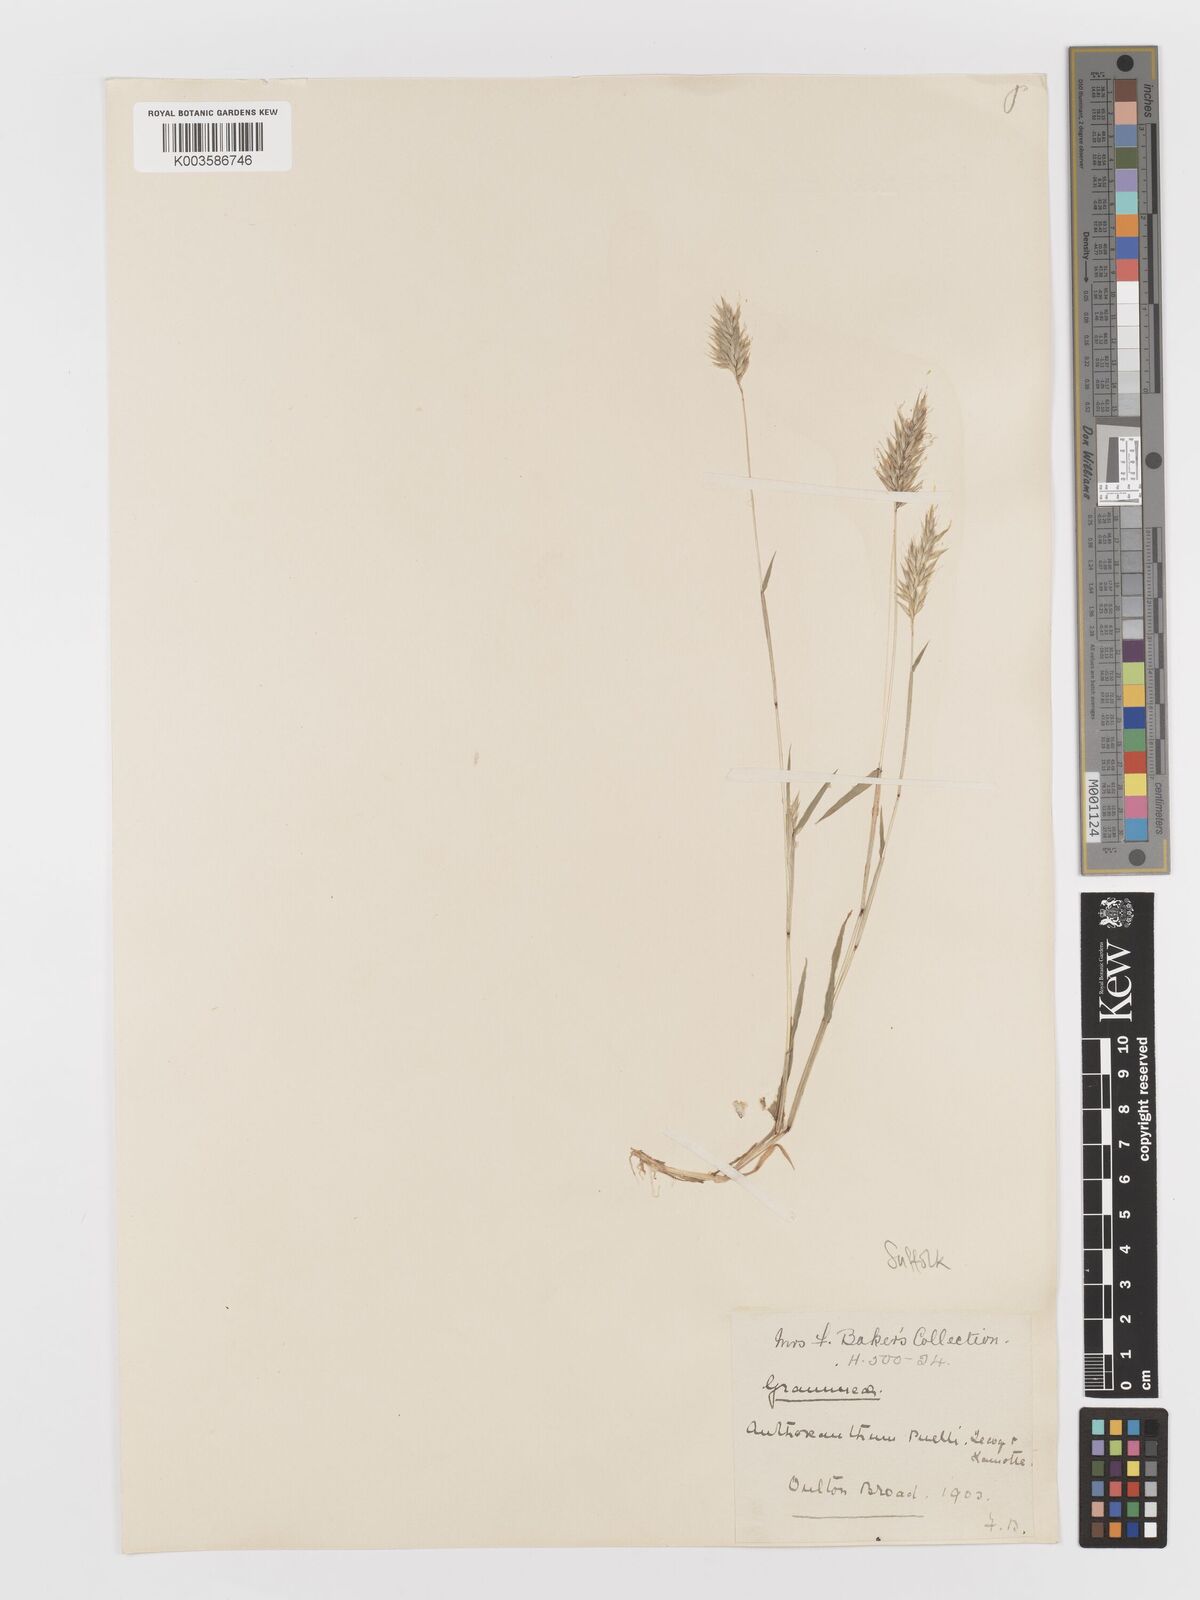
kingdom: Plantae
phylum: Tracheophyta
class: Liliopsida
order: Poales
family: Poaceae
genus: Anthoxanthum
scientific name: Anthoxanthum aristatum
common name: Annual vernal-grass
